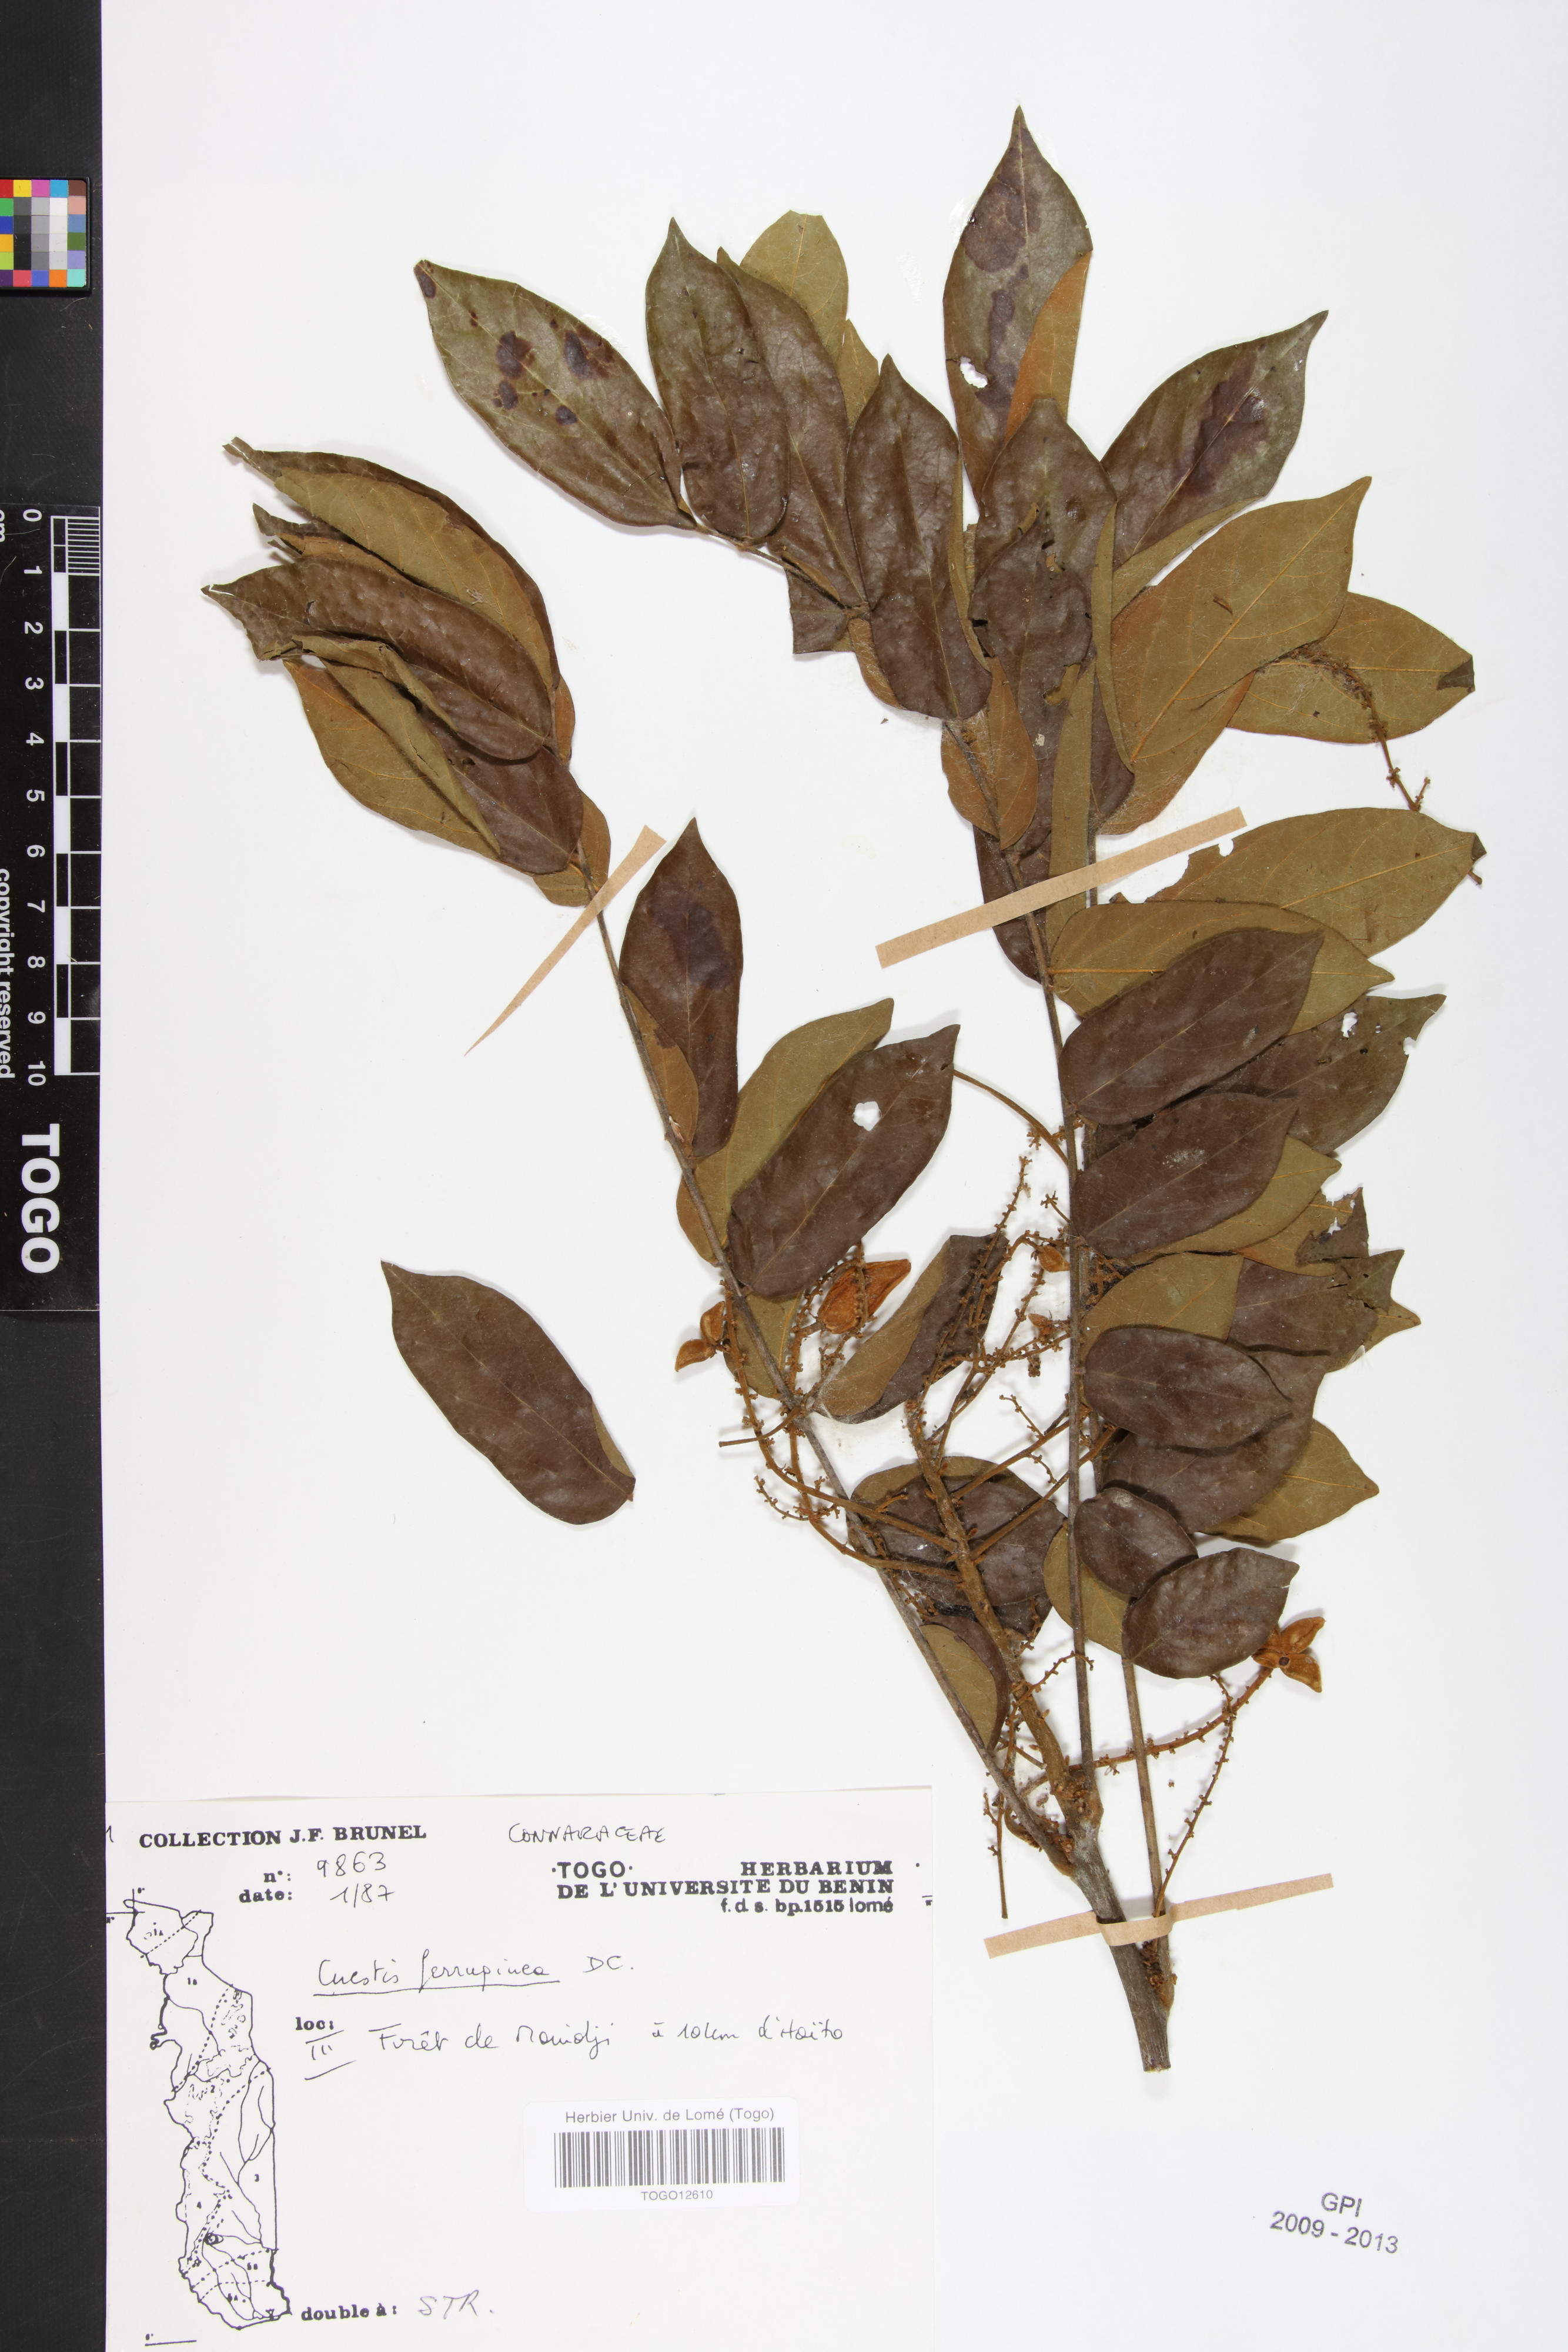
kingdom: Plantae
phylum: Tracheophyta
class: Magnoliopsida
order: Oxalidales
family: Connaraceae
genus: Cnestis
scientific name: Cnestis ferruginea
